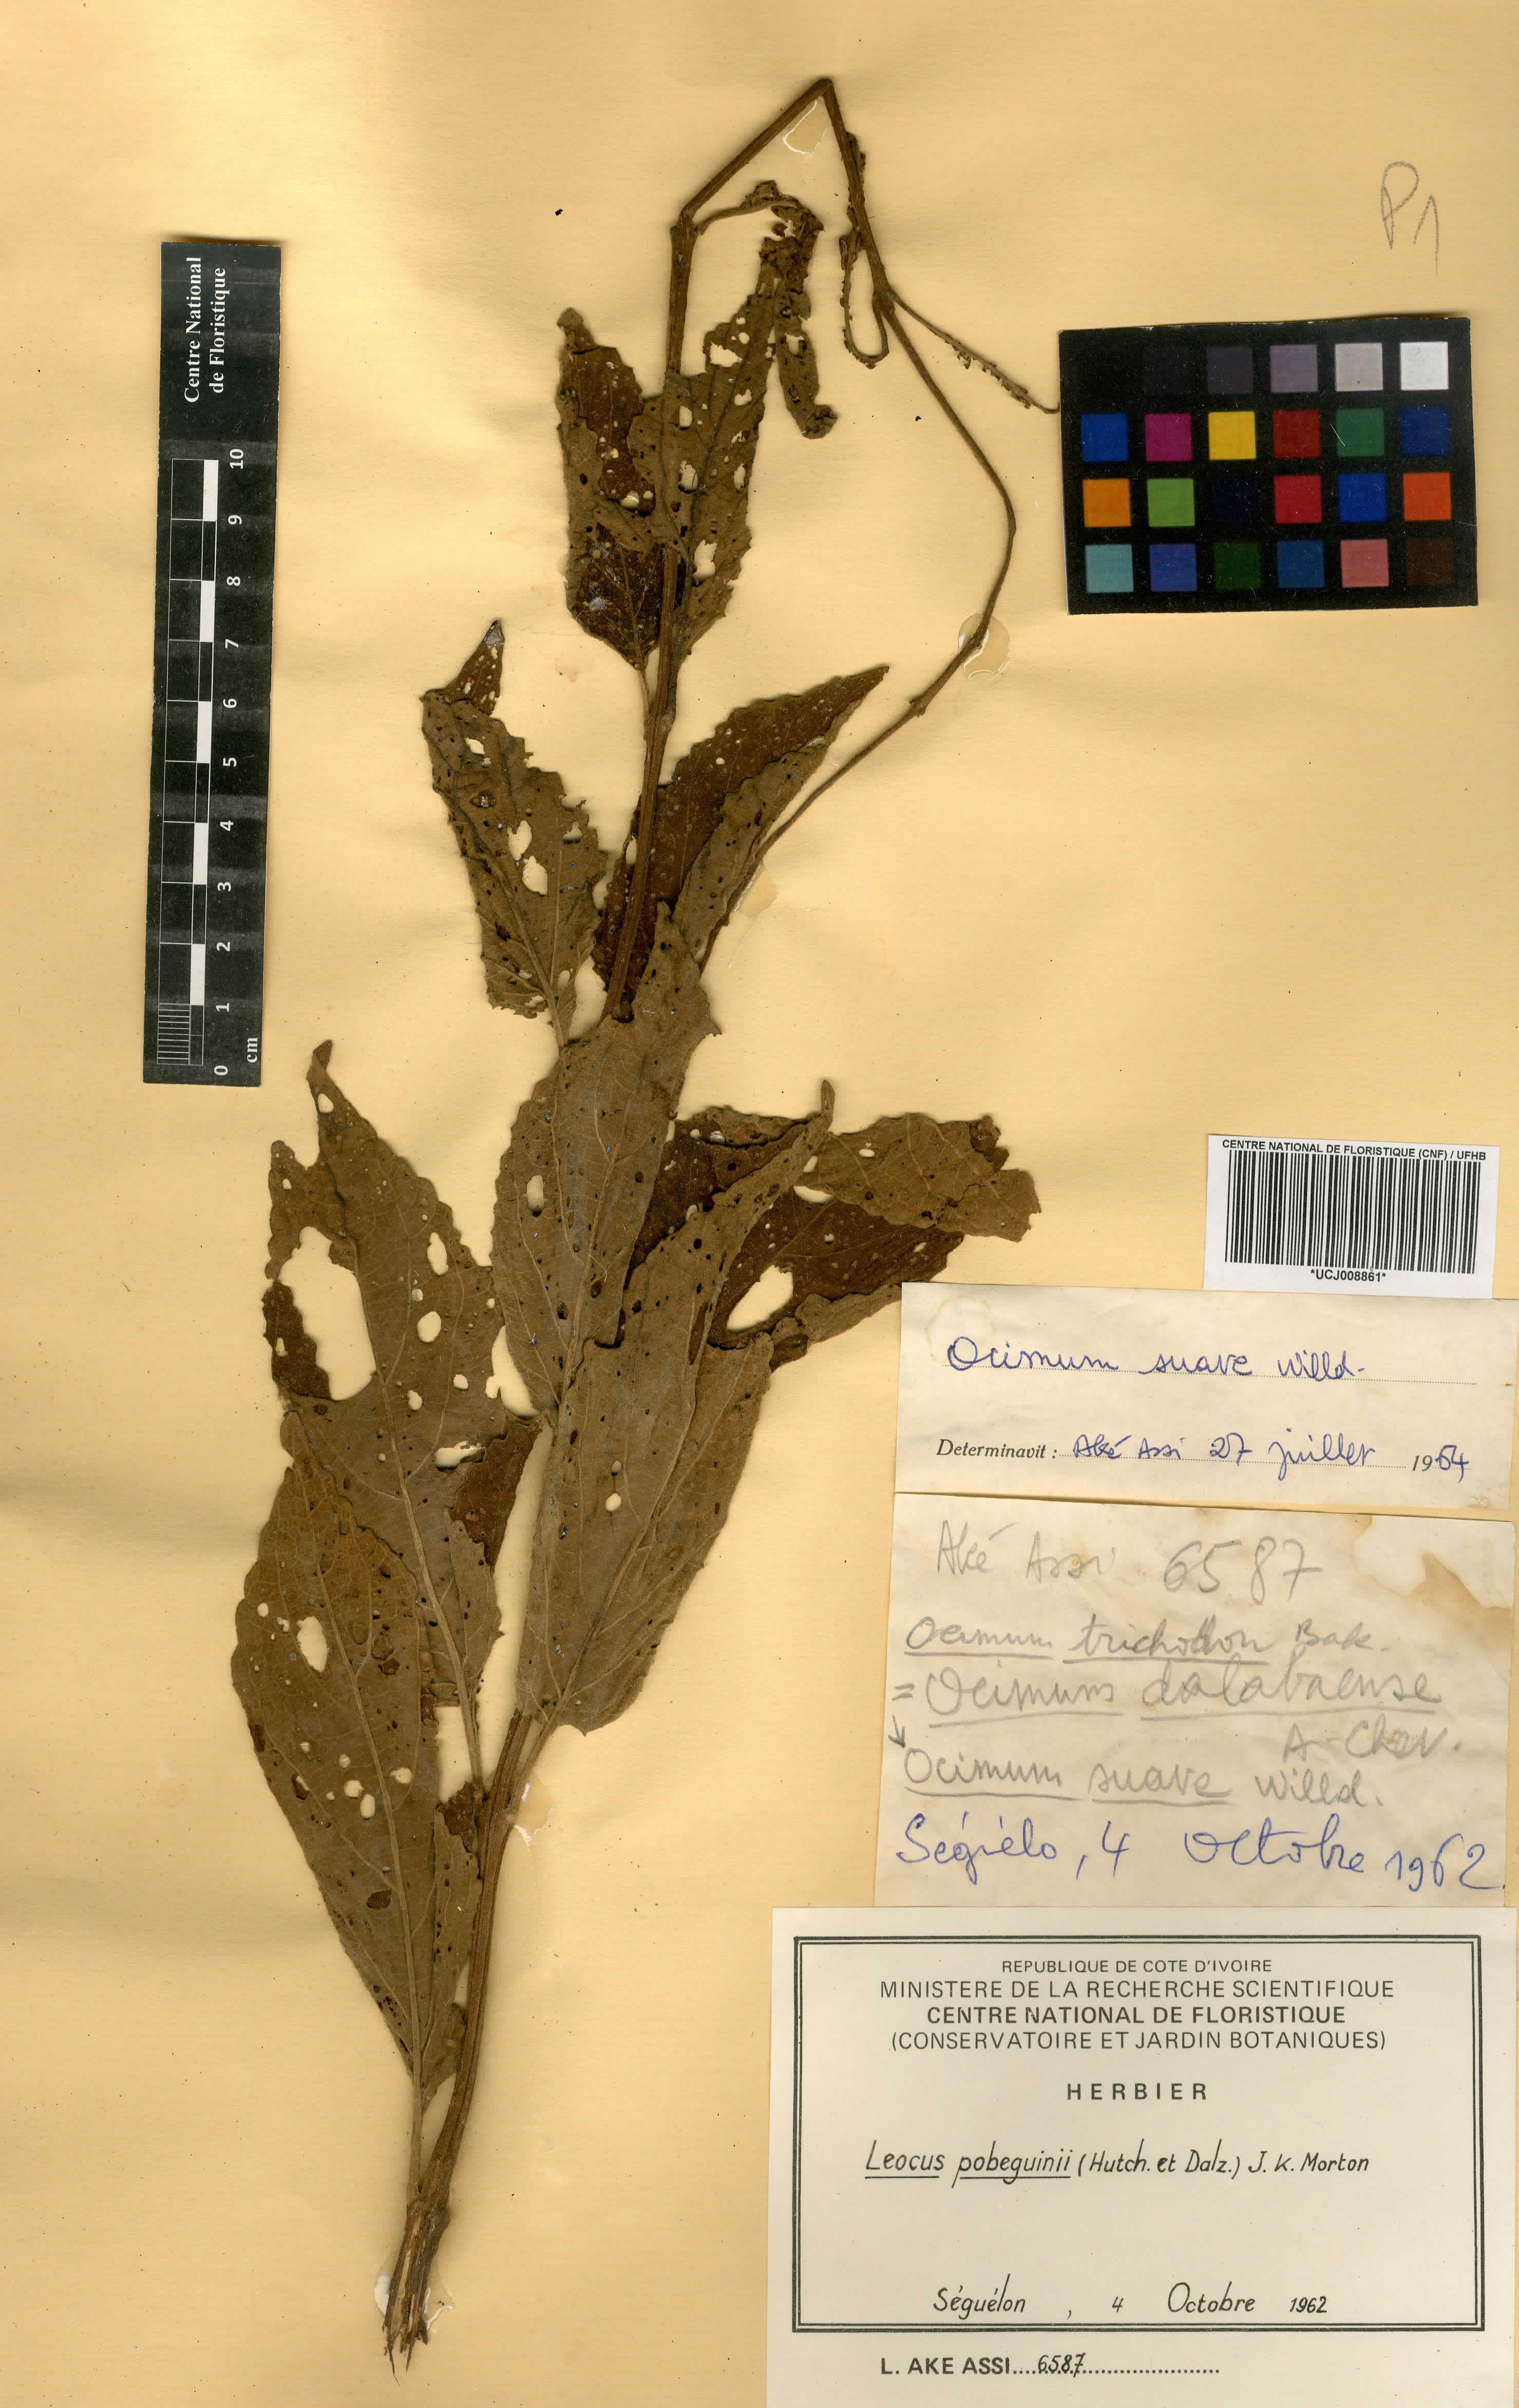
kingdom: Plantae
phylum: Tracheophyta
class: Magnoliopsida
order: Lamiales
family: Lamiaceae
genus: Coleus
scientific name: Coleus pobeguinii
